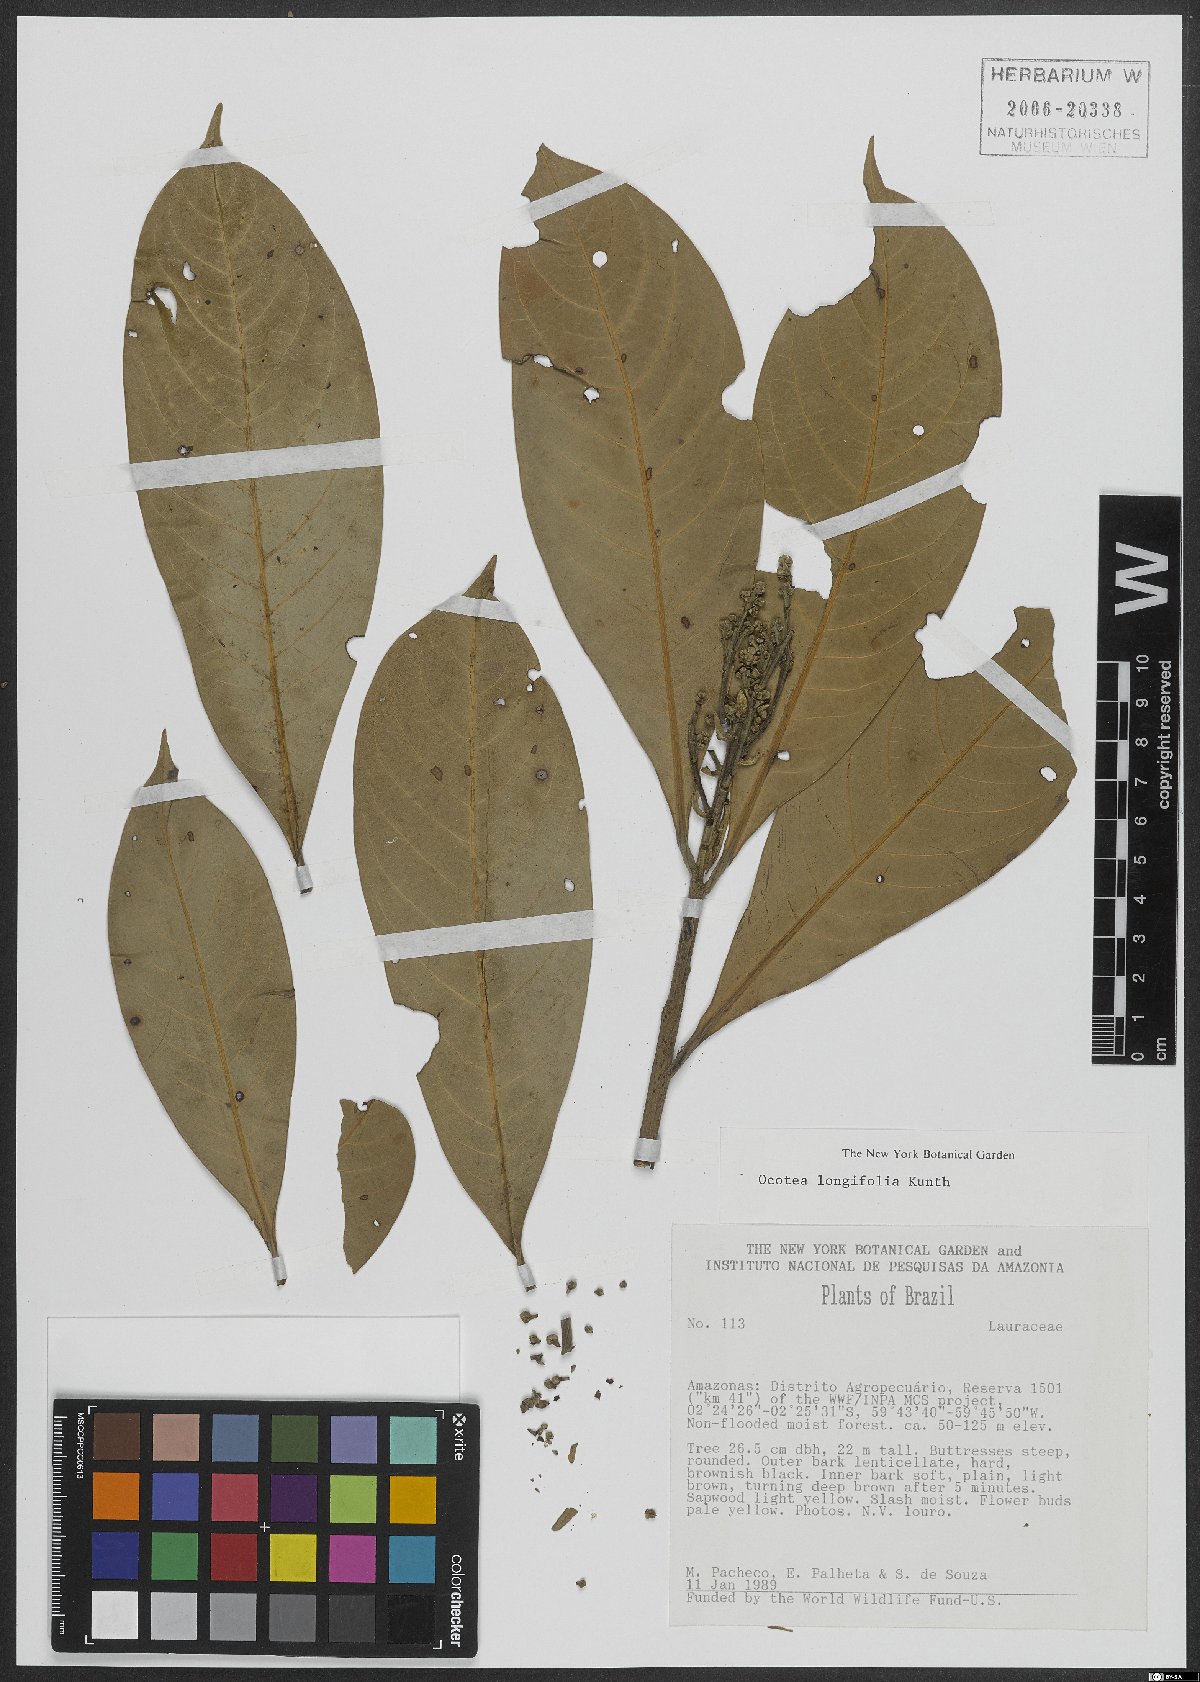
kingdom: Plantae
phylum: Tracheophyta
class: Magnoliopsida
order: Laurales
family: Lauraceae
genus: Mespilodaphne
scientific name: Mespilodaphne opifera
